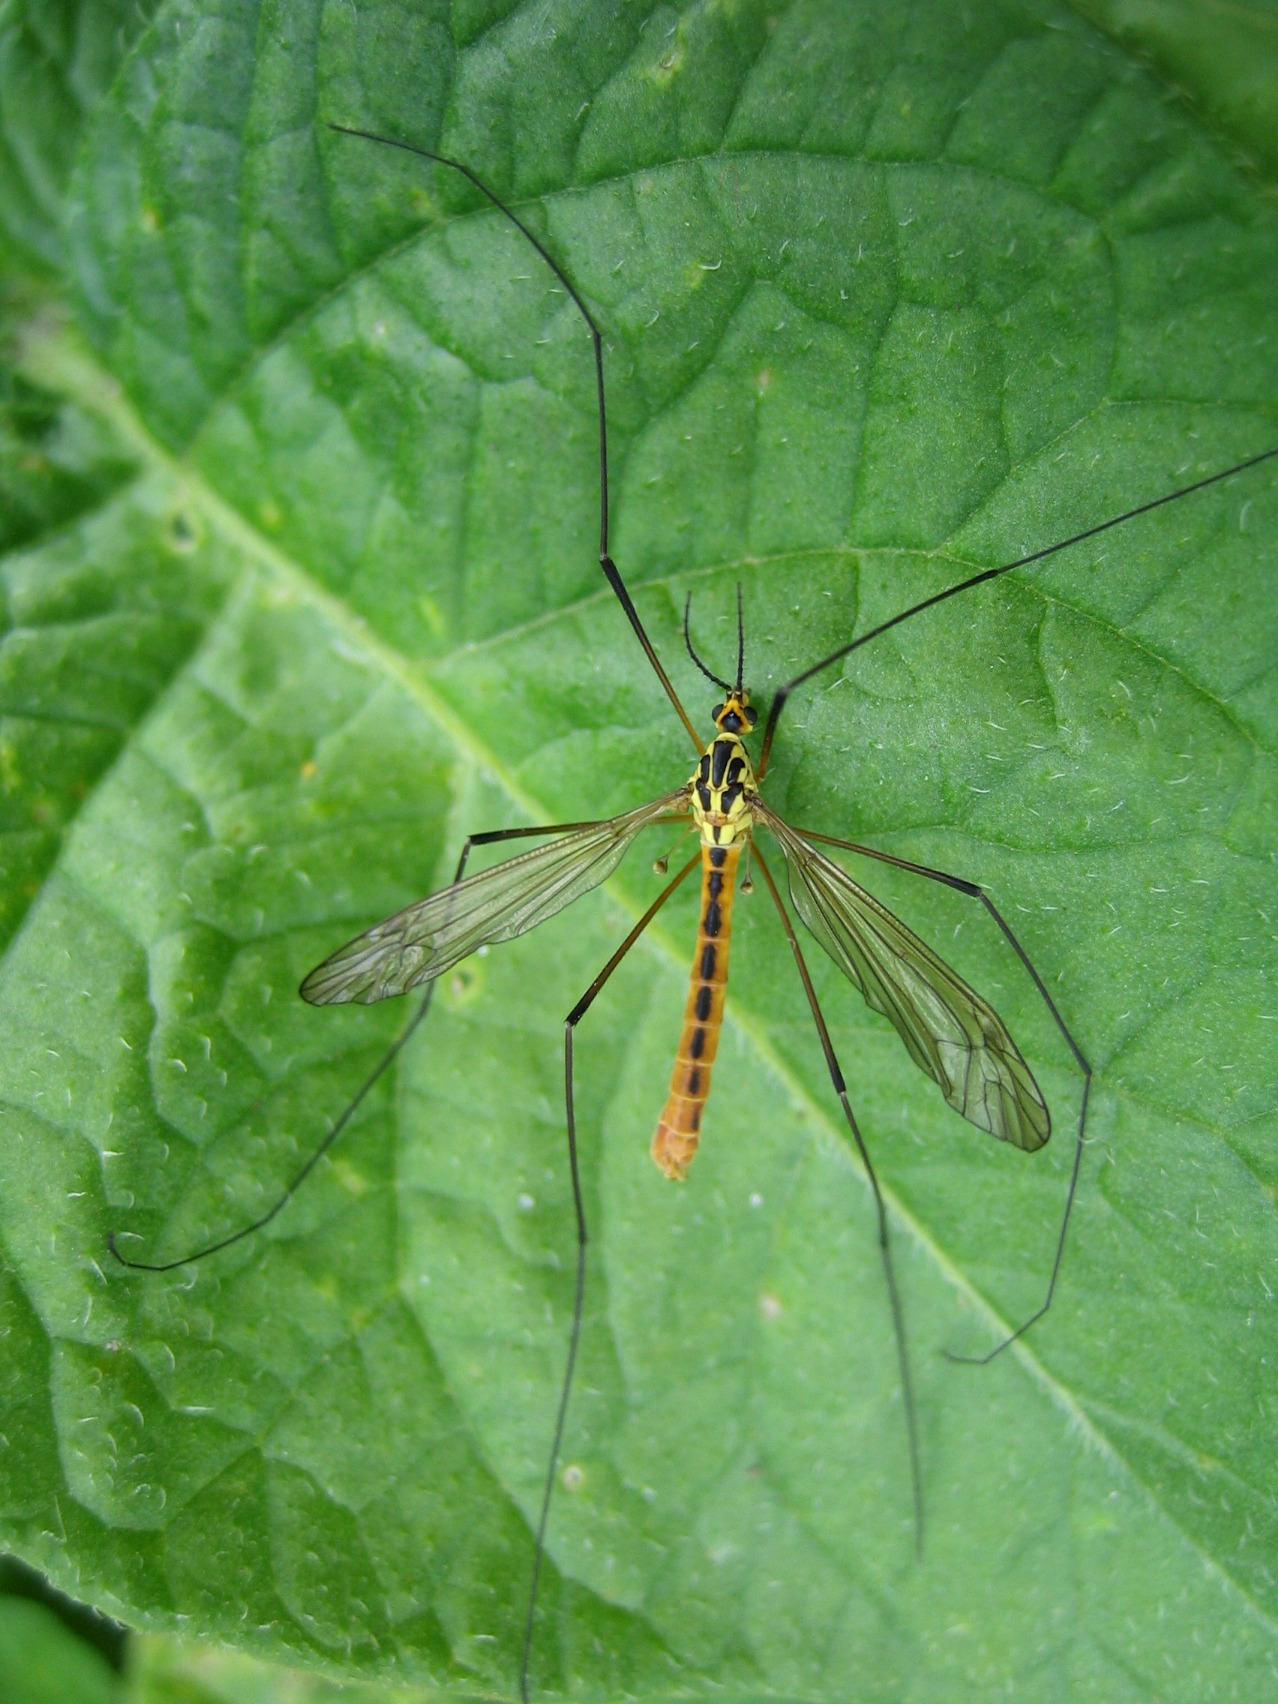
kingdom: Animalia
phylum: Arthropoda
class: Insecta
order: Diptera
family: Tipulidae
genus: Nephrotoma
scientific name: Nephrotoma flavescens
